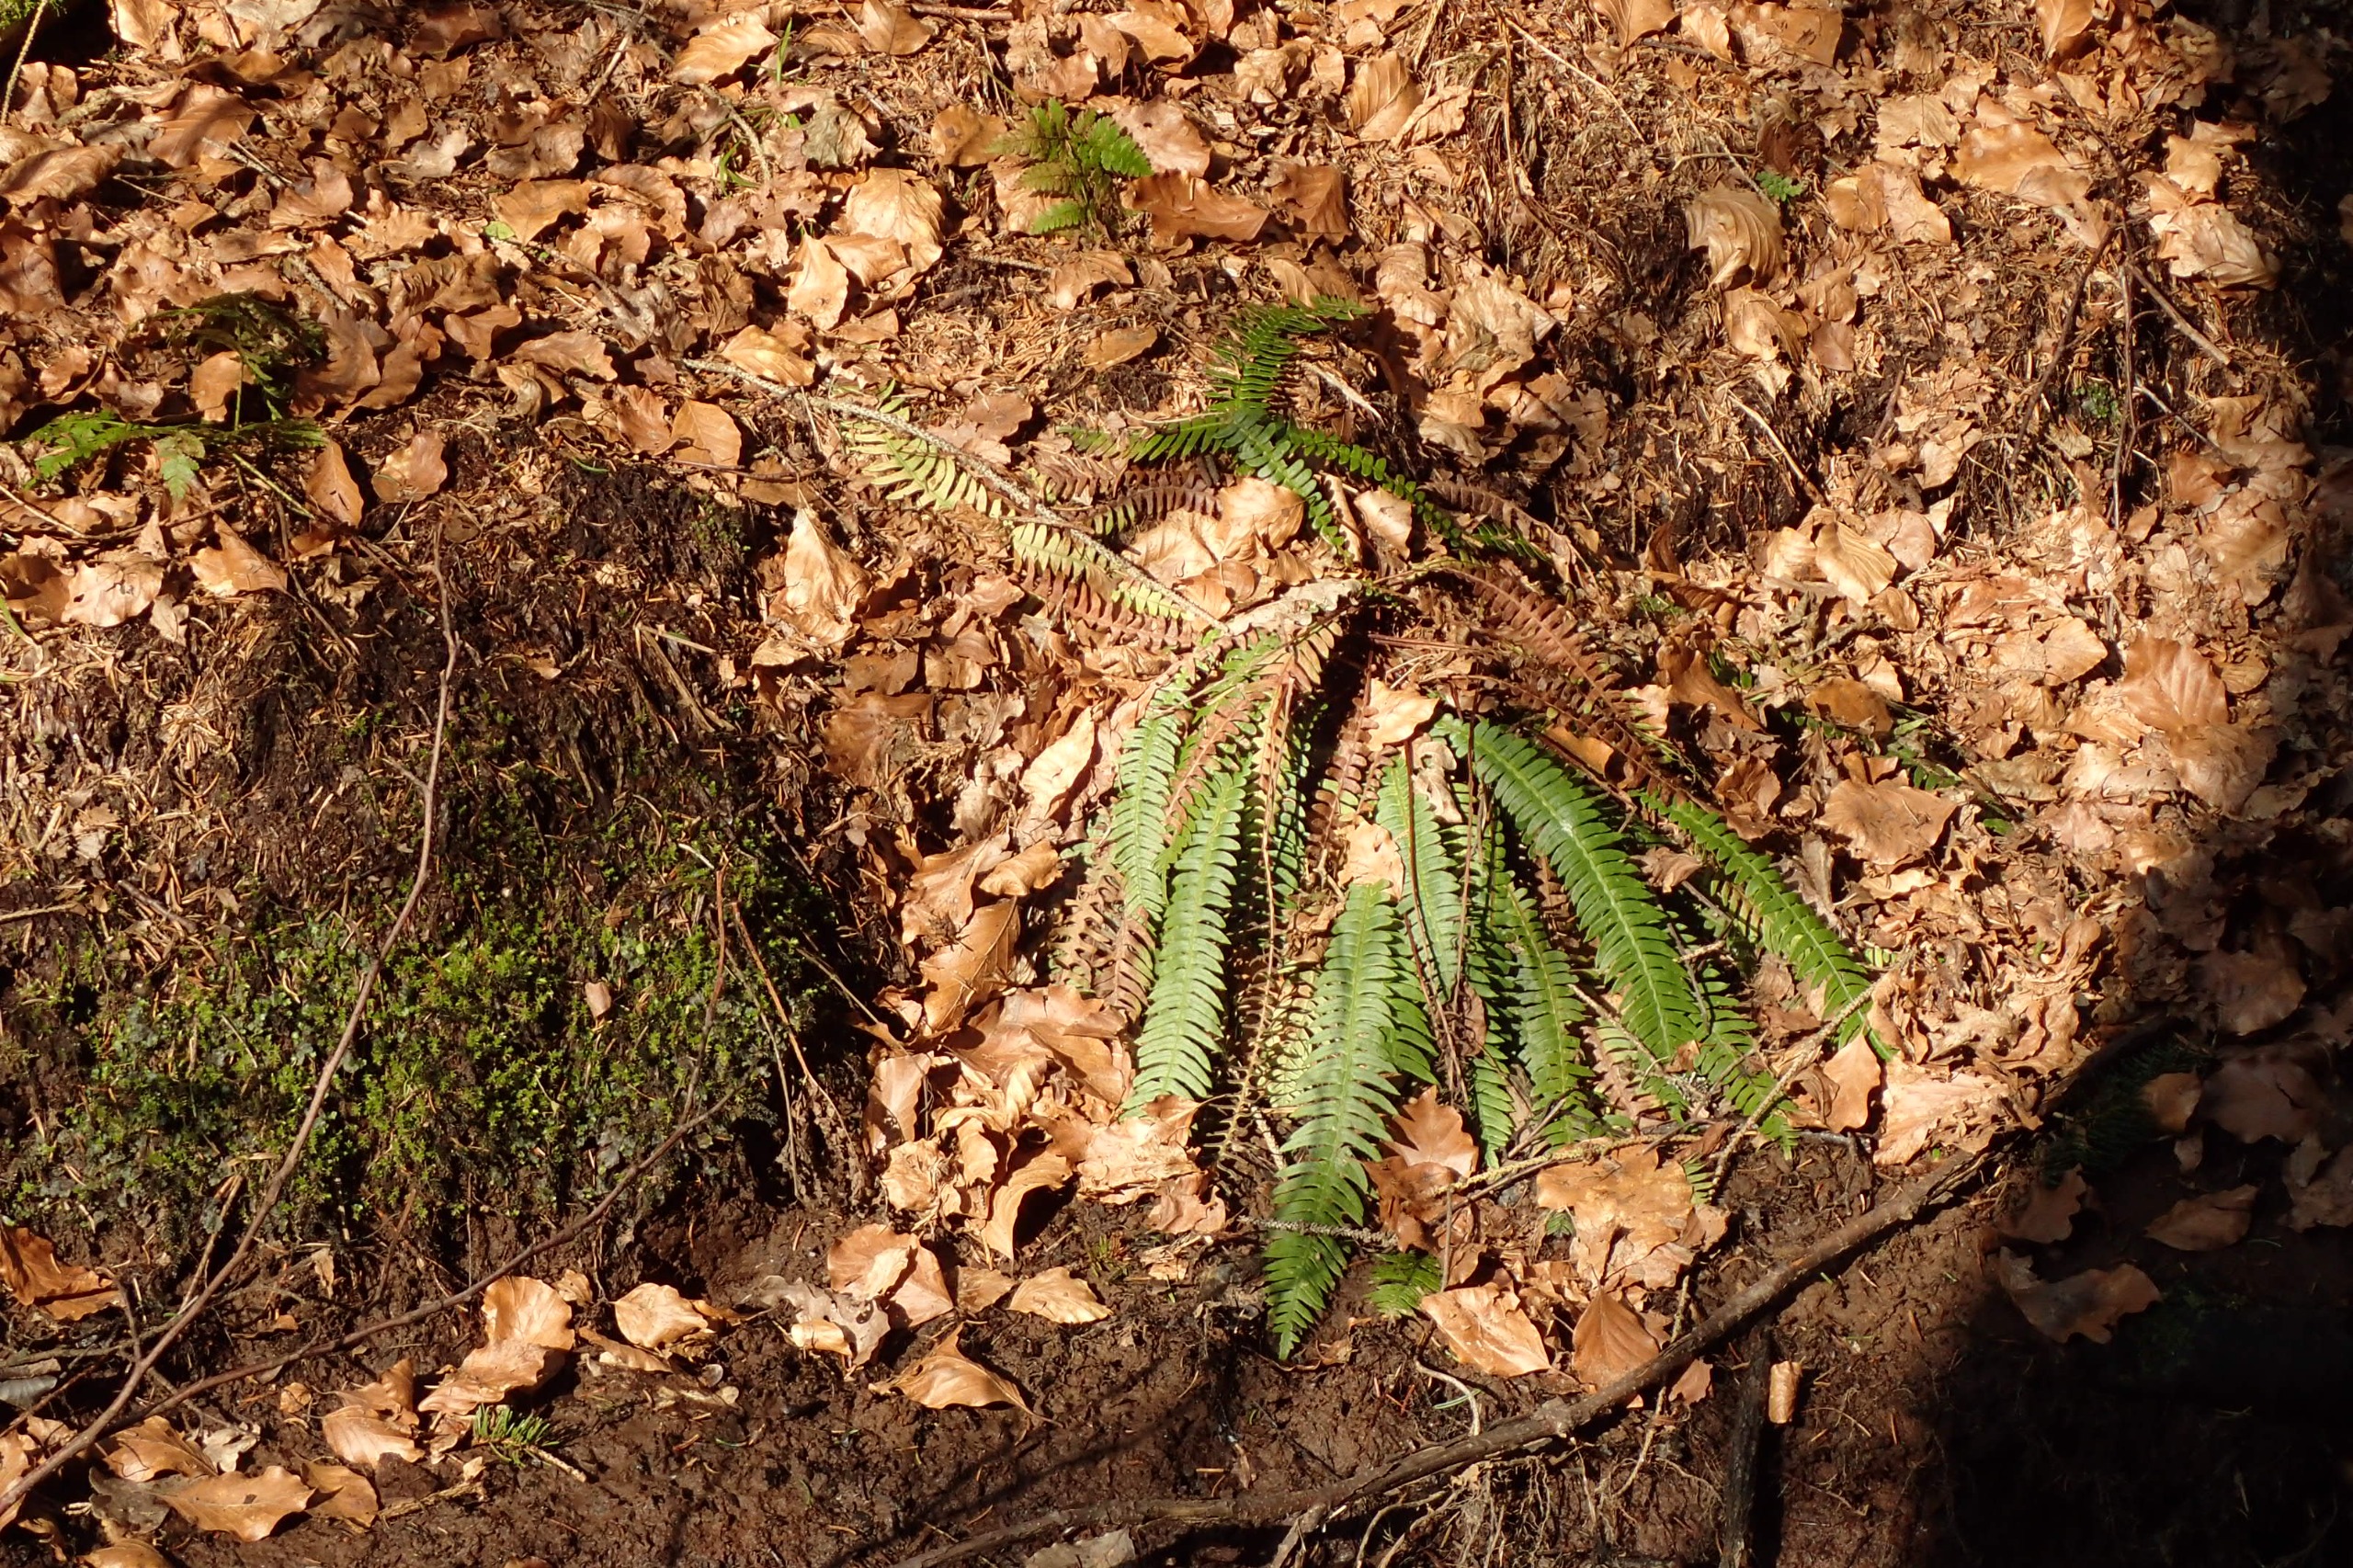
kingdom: Plantae
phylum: Tracheophyta
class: Polypodiopsida
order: Polypodiales
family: Blechnaceae
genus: Struthiopteris
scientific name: Struthiopteris spicant
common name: Kambregne
